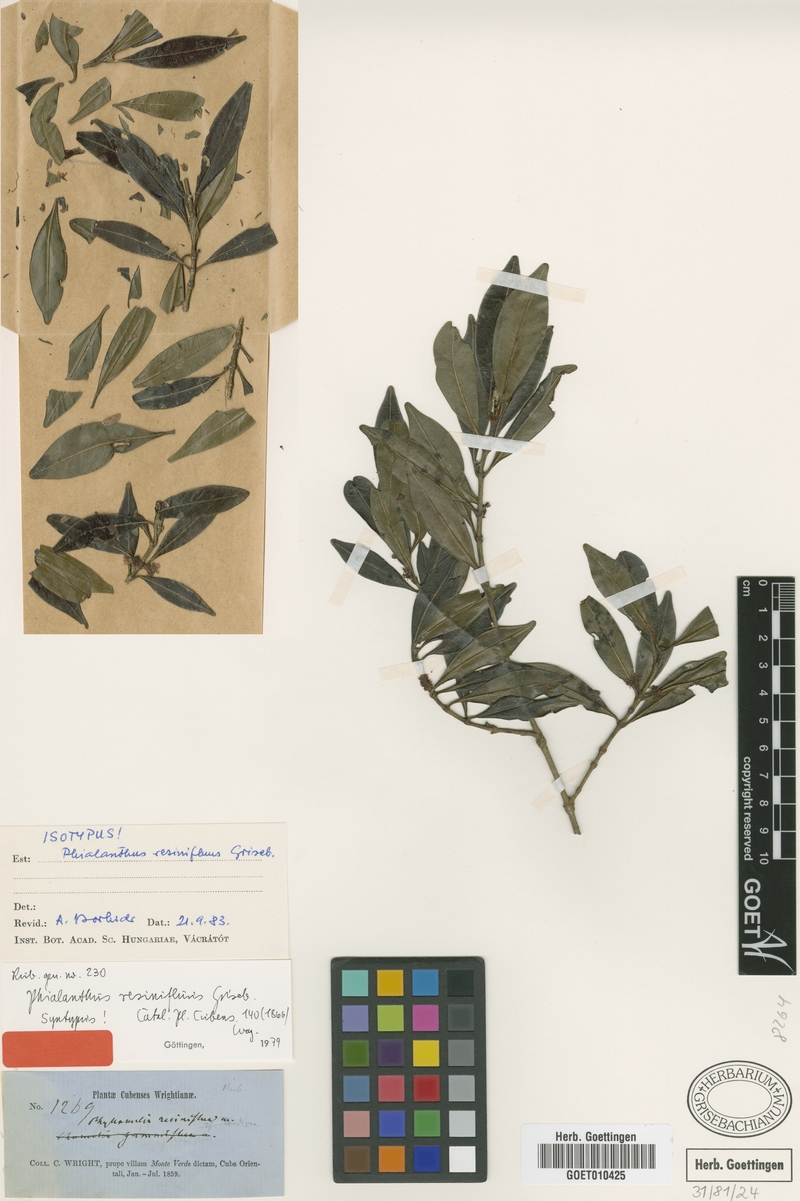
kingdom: Plantae
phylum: Tracheophyta
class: Magnoliopsida
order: Gentianales
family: Rubiaceae
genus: Phialanthus
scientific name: Phialanthus resinifluus
